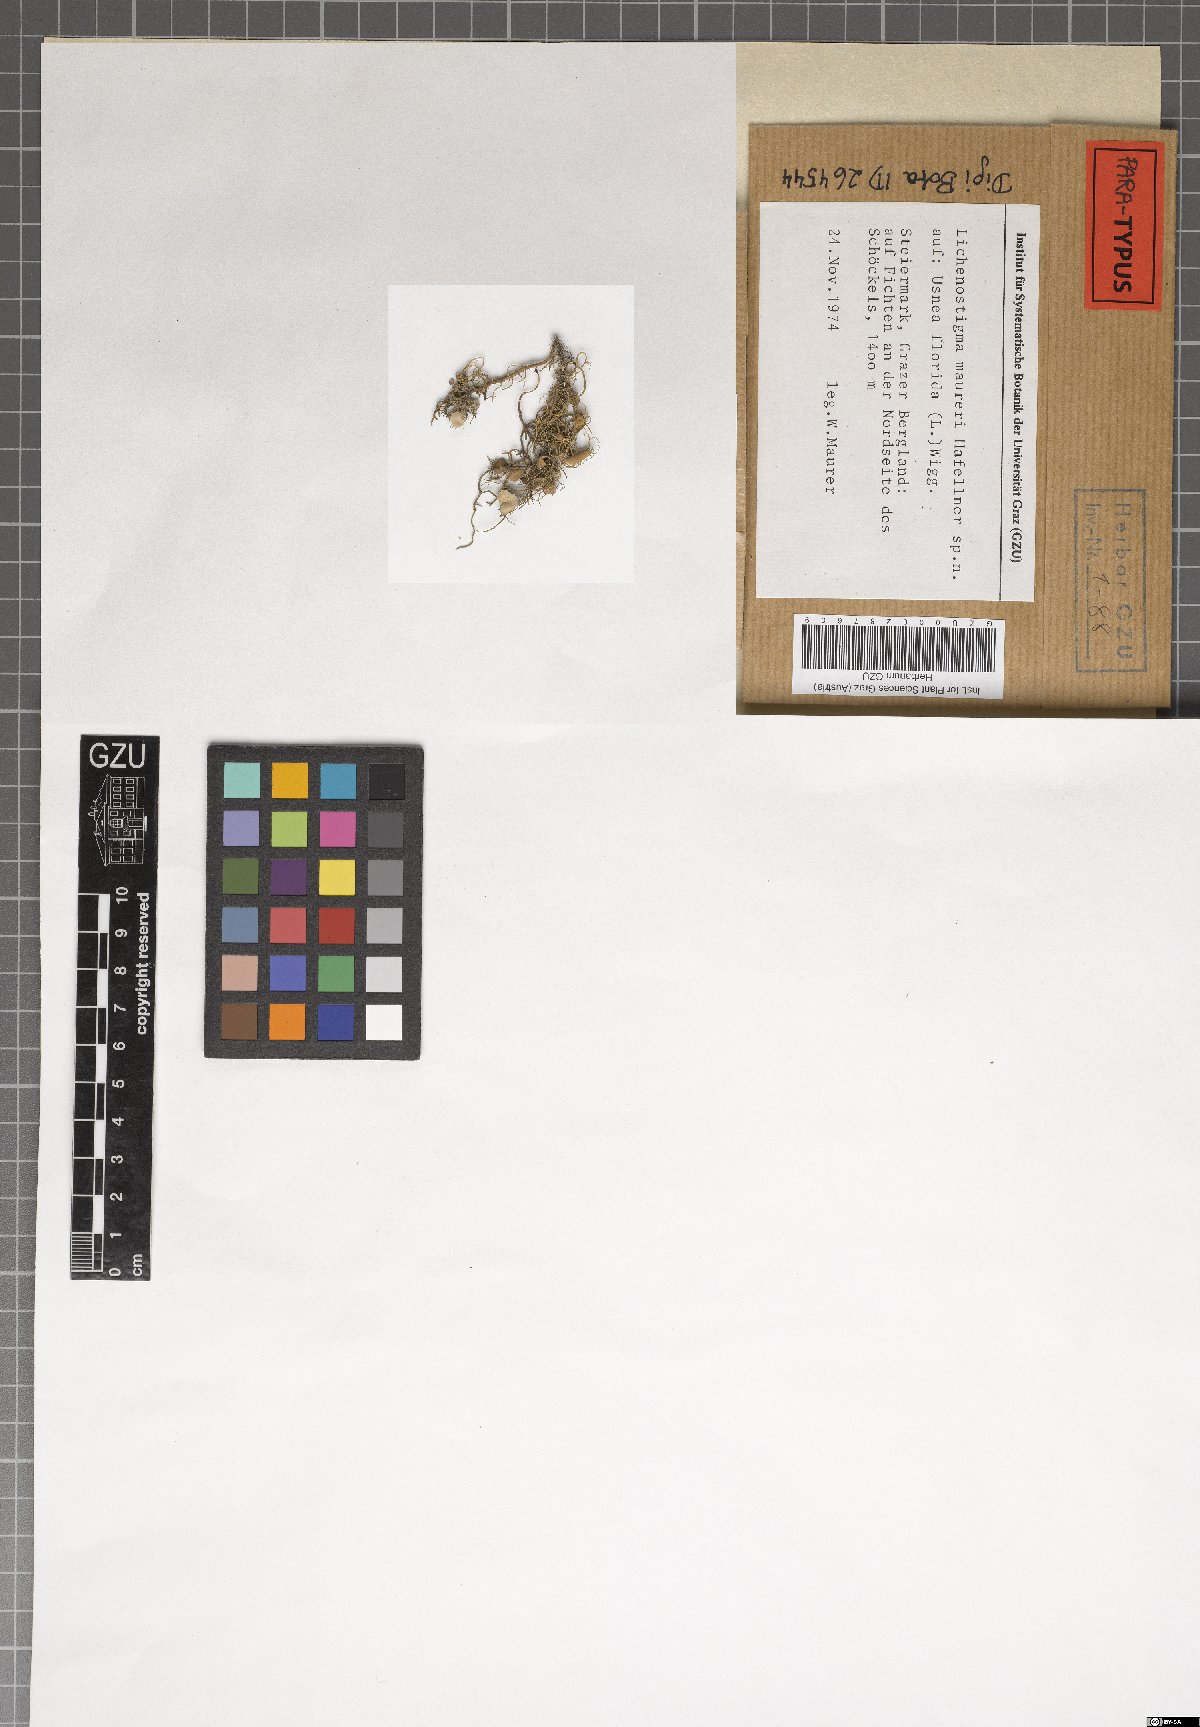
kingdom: Fungi
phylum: Ascomycota
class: Arthoniomycetes
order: Lichenostigmatales
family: Phaeococcomycetaceae
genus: Lichenostigma
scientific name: Lichenostigma maureri
